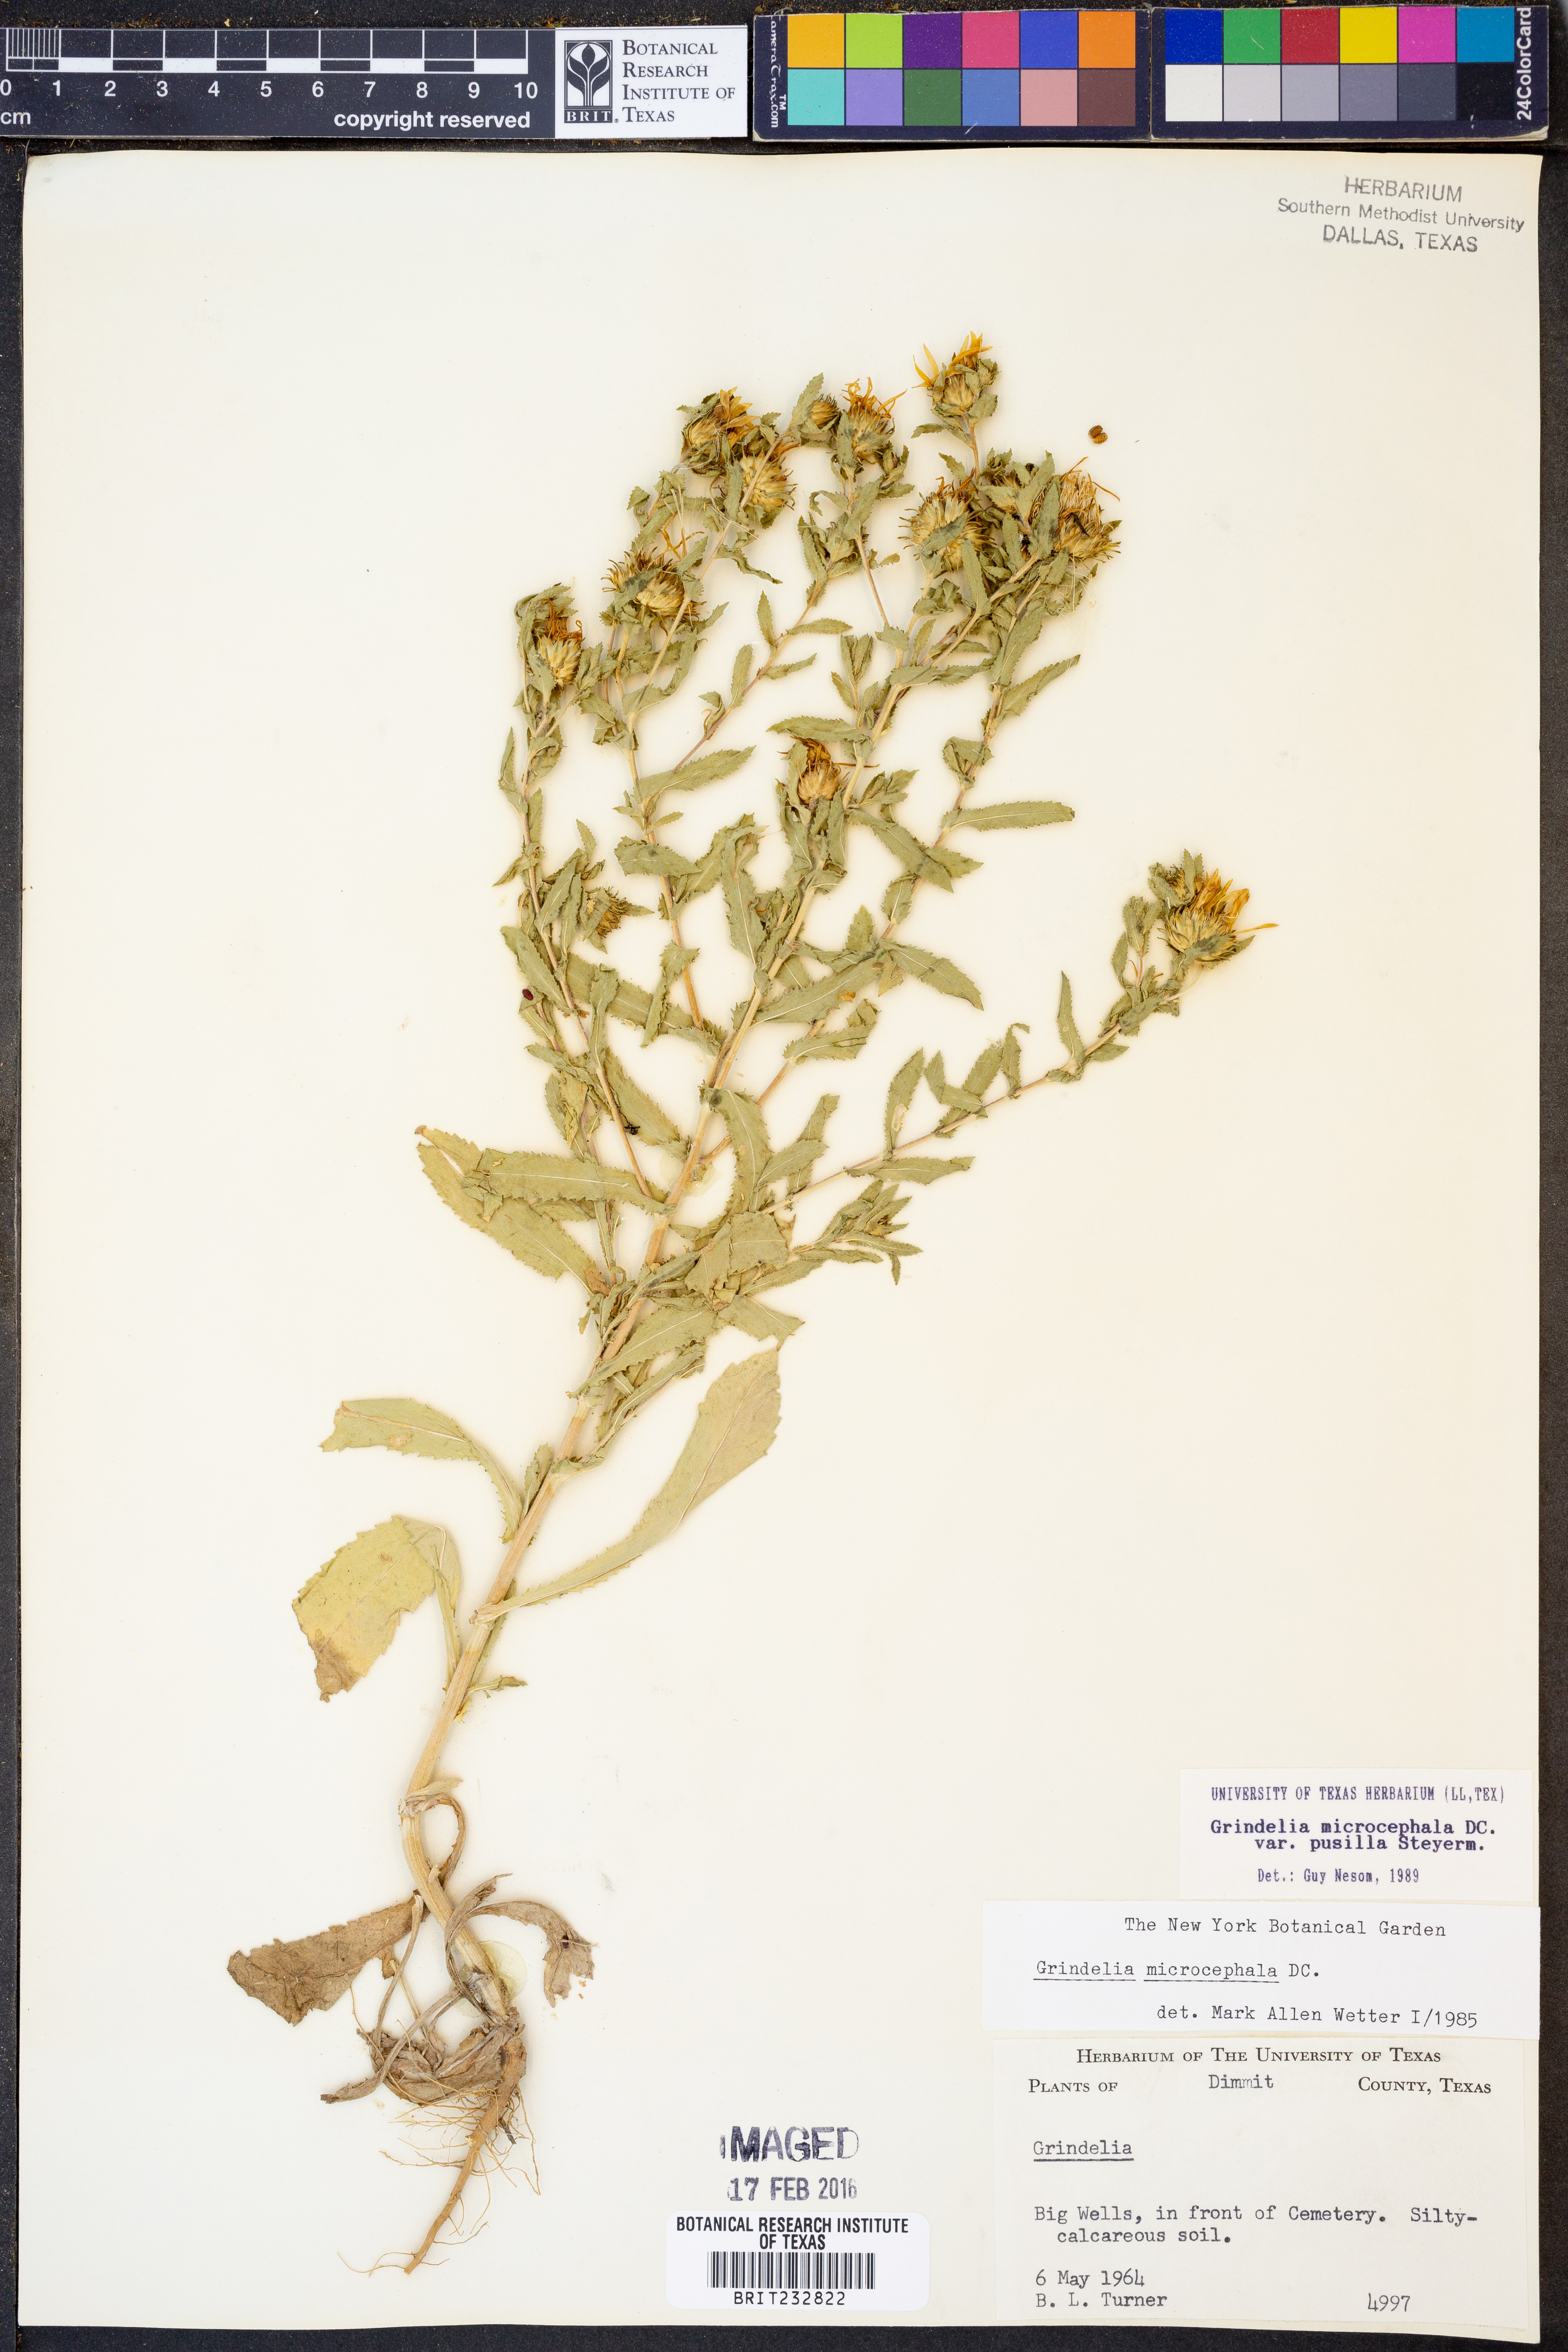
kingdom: Plantae
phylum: Tracheophyta
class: Magnoliopsida
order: Asterales
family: Asteraceae
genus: Grindelia
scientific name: Grindelia pusilla
